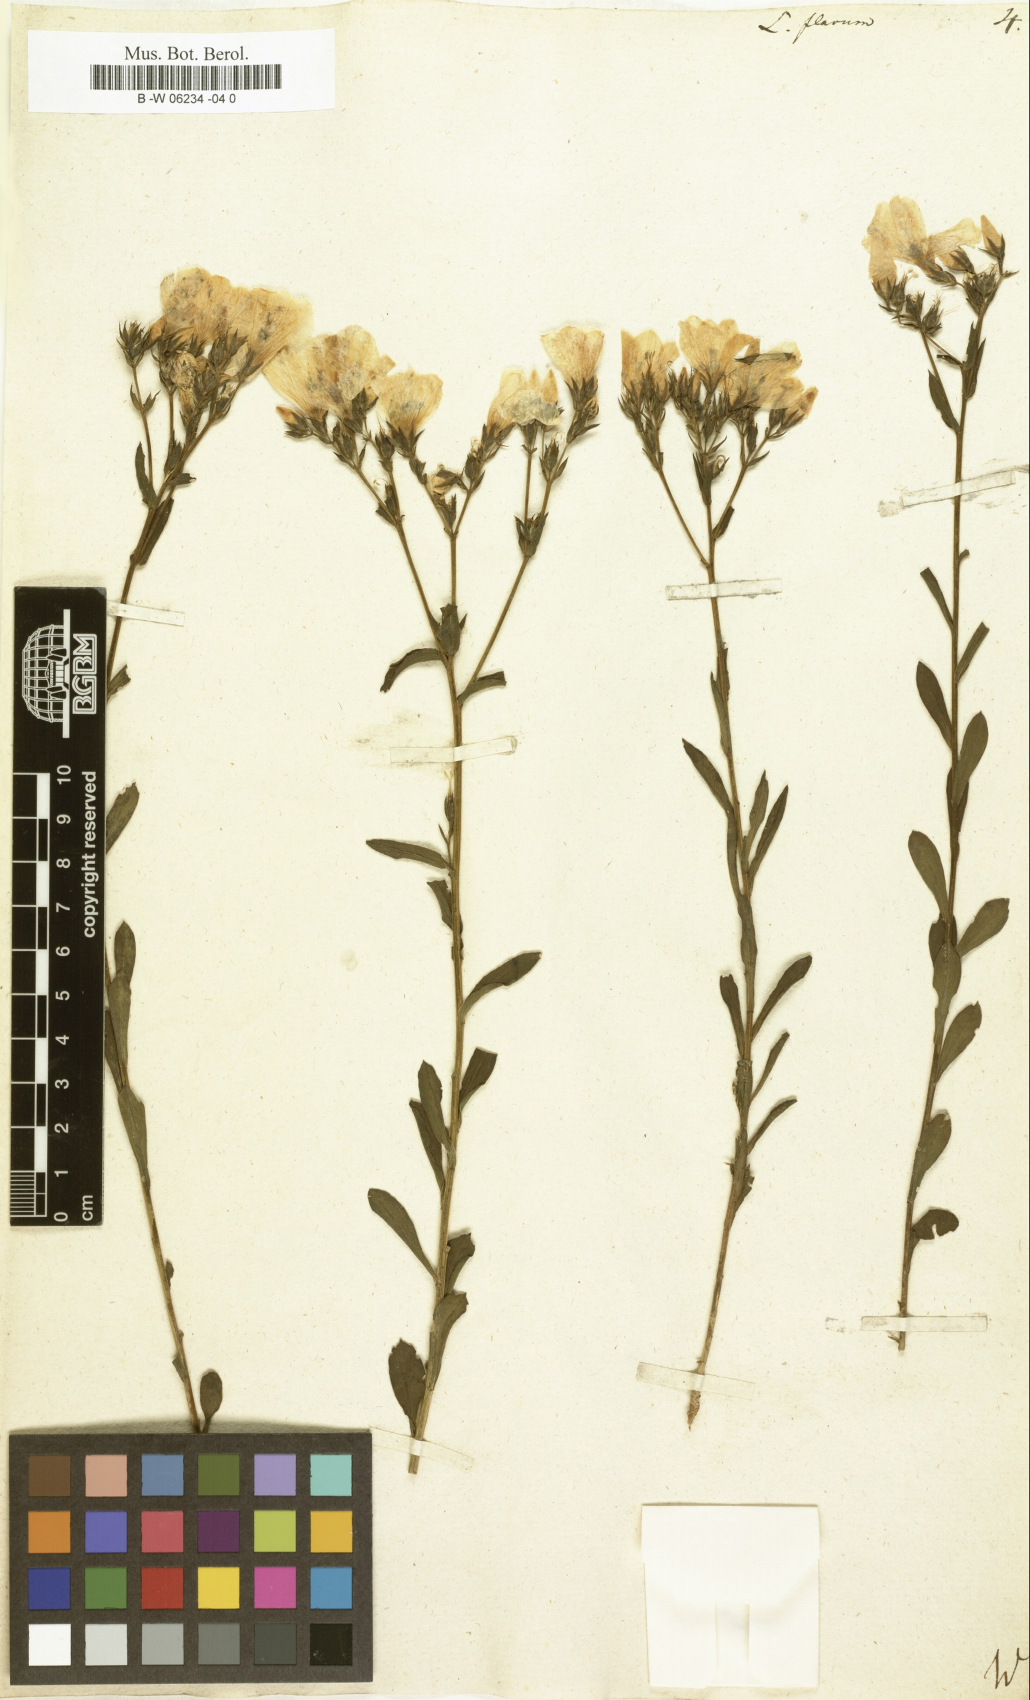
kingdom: Plantae
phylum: Tracheophyta
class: Magnoliopsida
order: Malpighiales
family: Linaceae
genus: Linum
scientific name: Linum flavum
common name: Yellow flax
